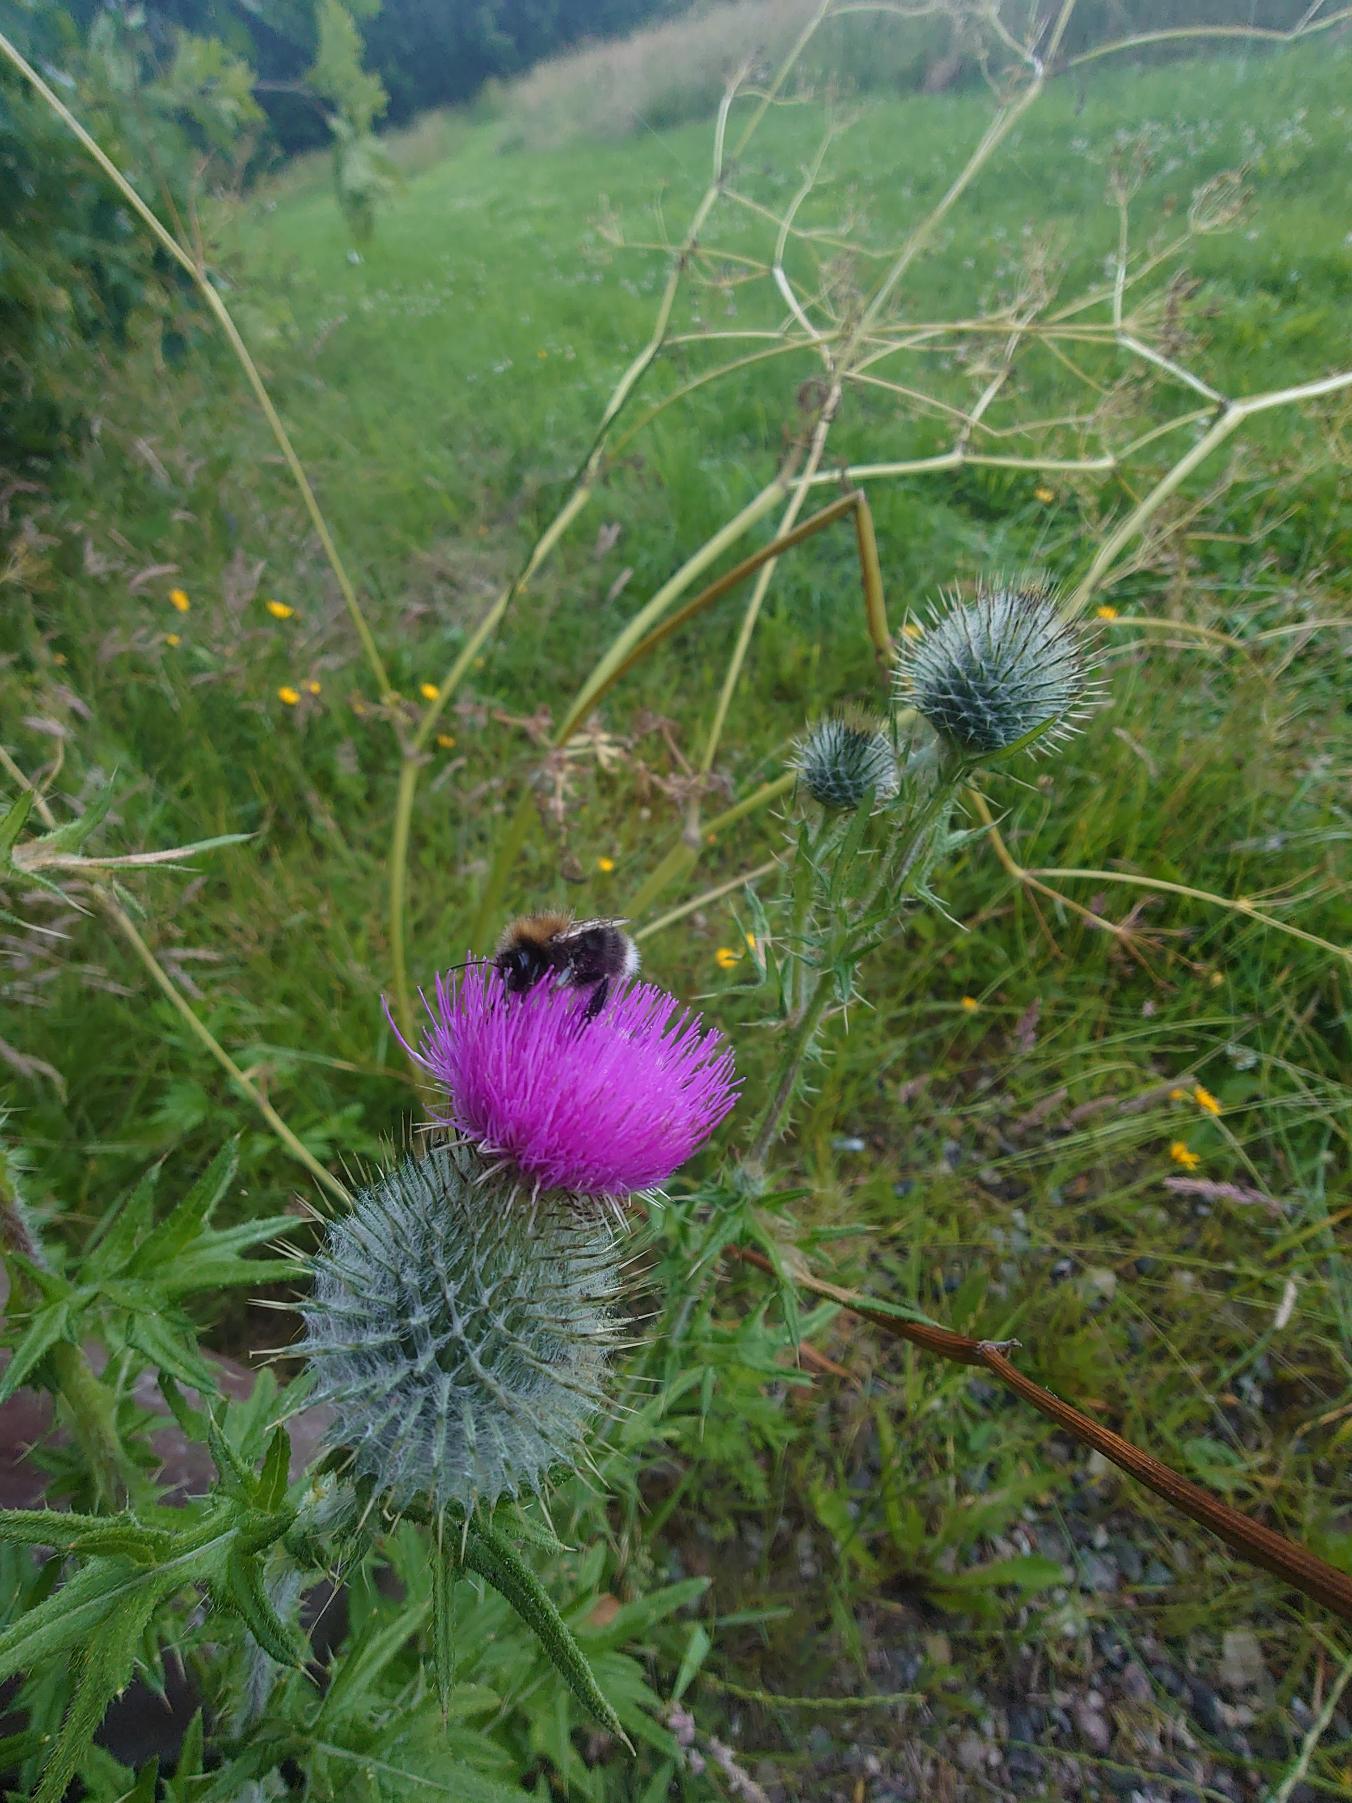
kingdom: Plantae
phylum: Tracheophyta
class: Magnoliopsida
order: Asterales
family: Asteraceae
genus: Cirsium
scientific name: Cirsium vulgare
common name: Horse-tidsel
